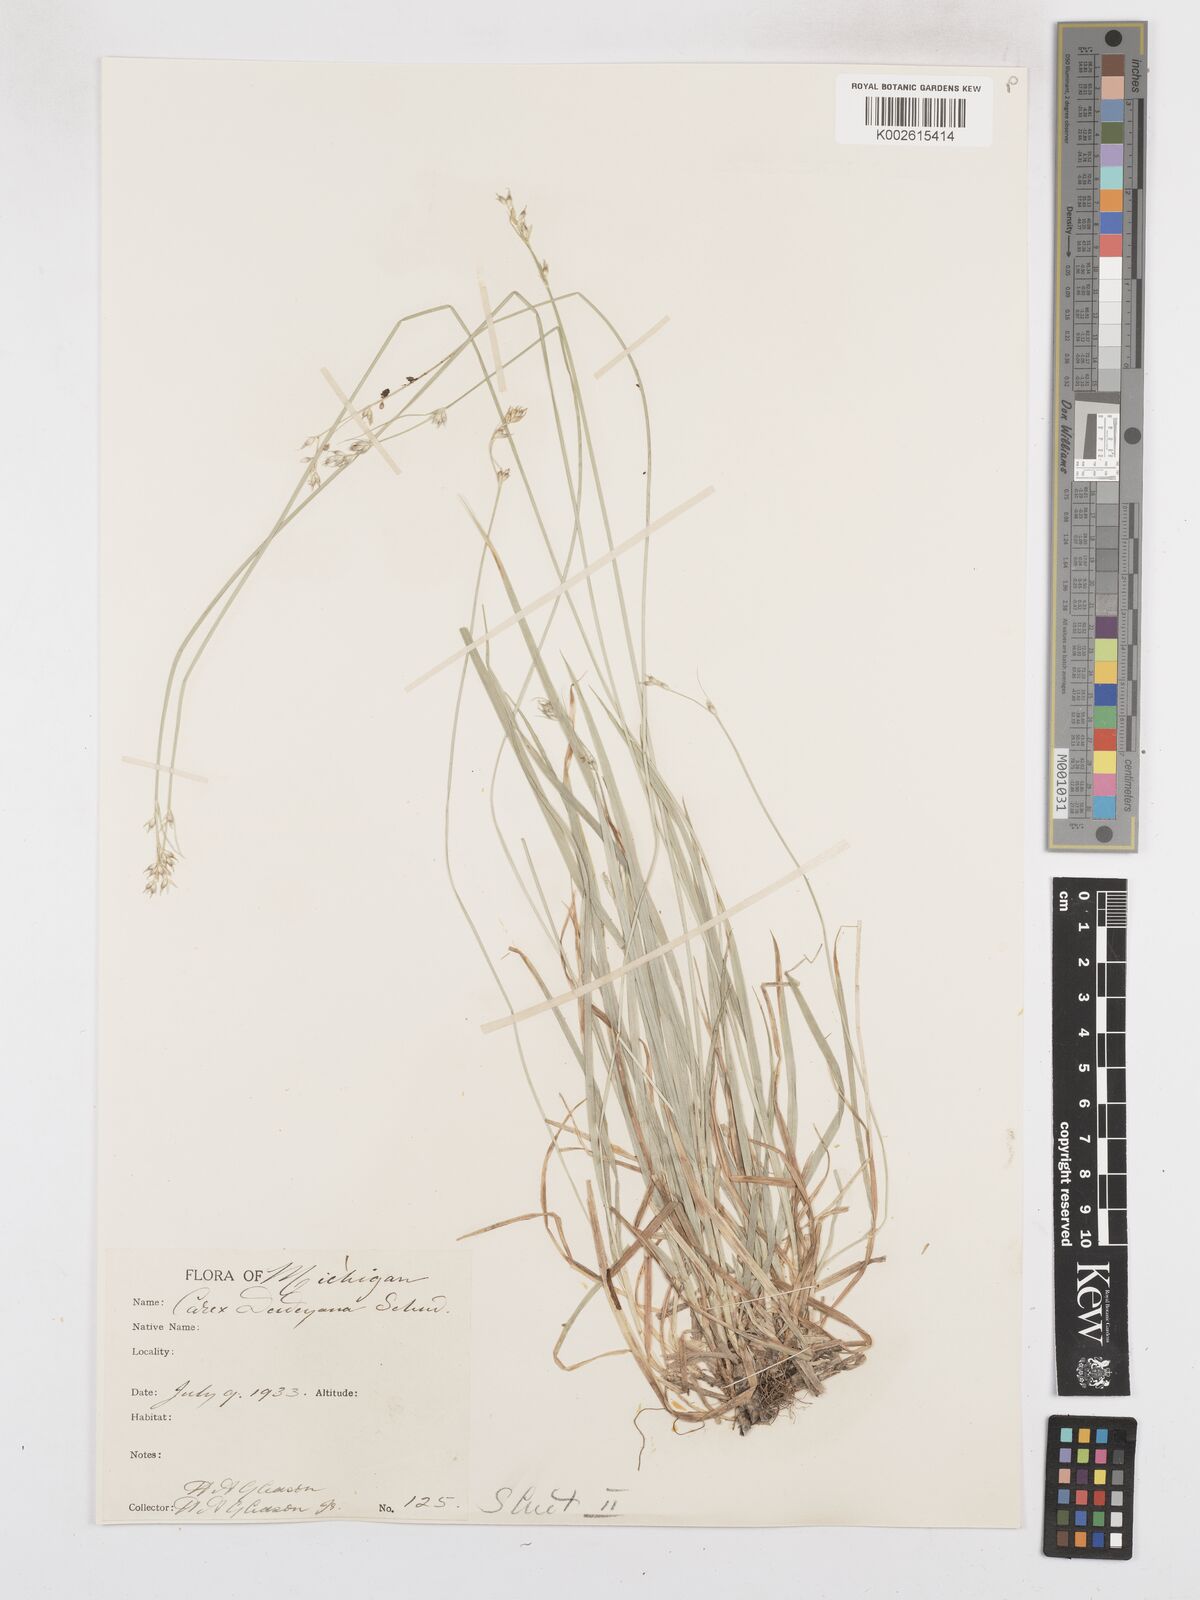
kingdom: Plantae
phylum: Tracheophyta
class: Liliopsida
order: Poales
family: Cyperaceae
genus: Carex
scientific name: Carex bolanderi
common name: Bolander's sedge
